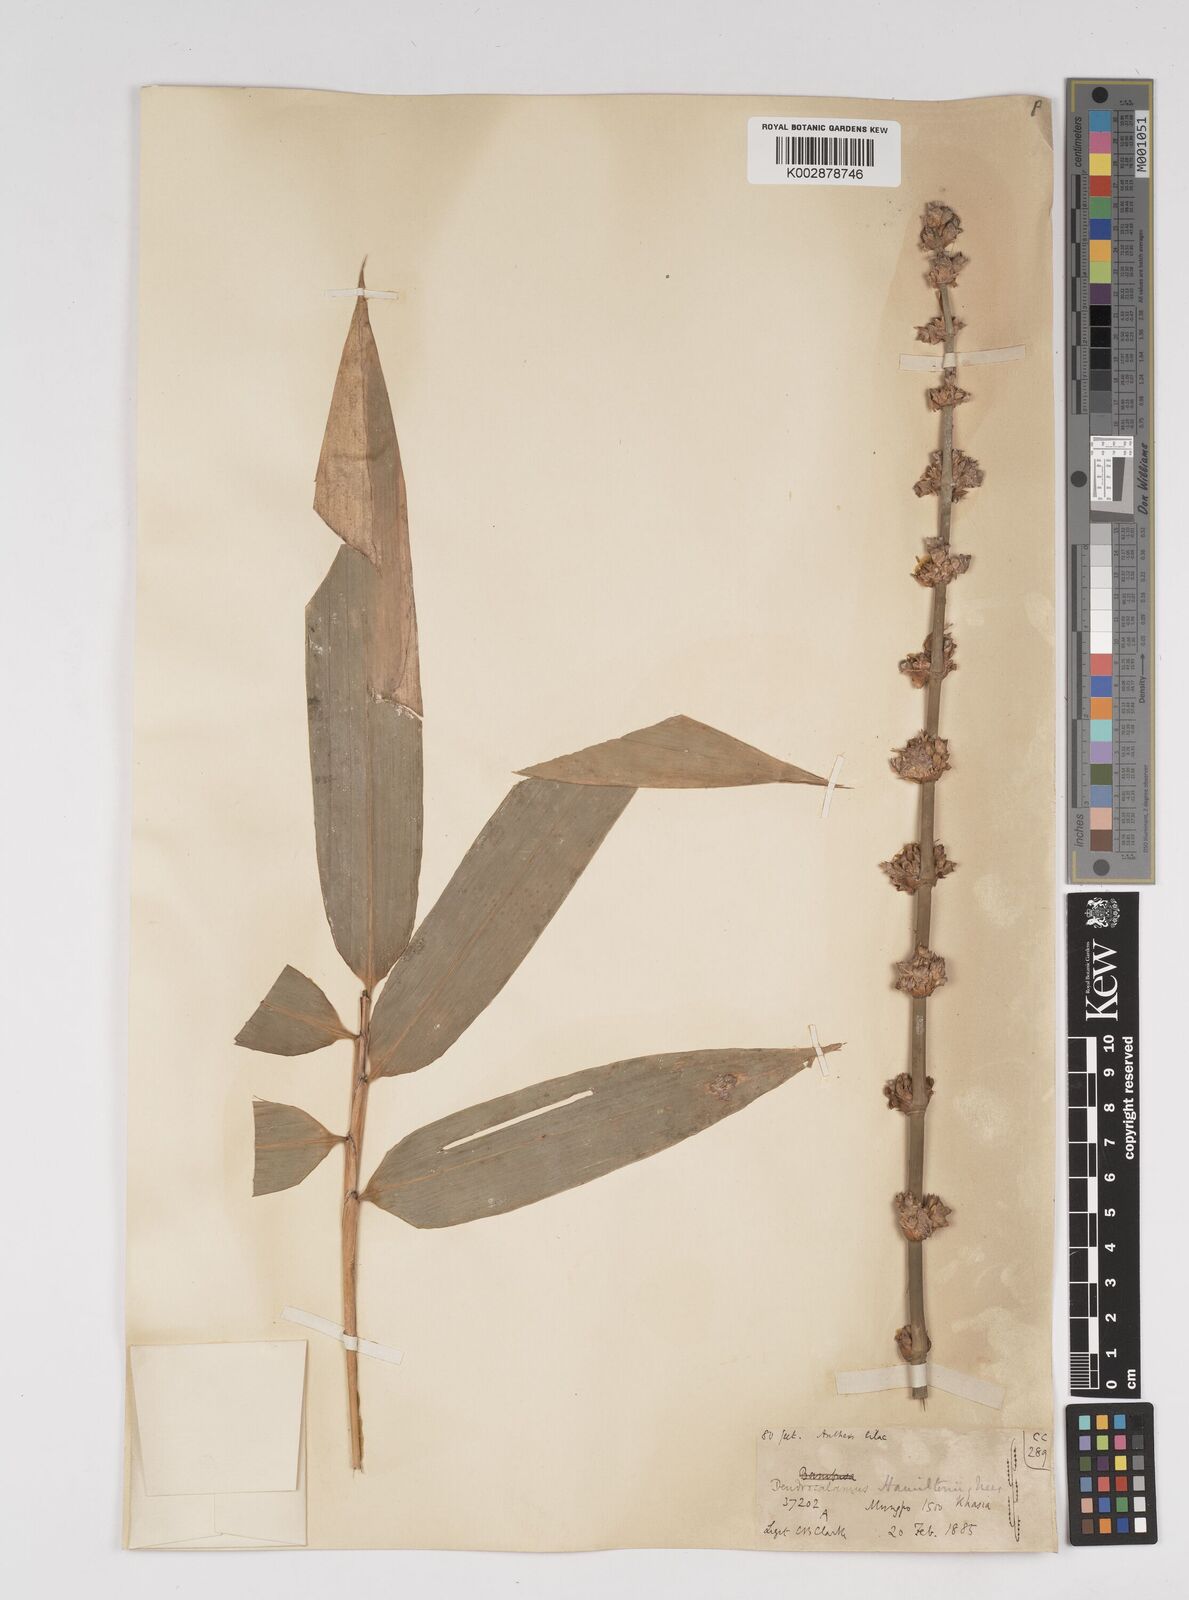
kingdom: Plantae
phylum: Tracheophyta
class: Liliopsida
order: Poales
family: Poaceae
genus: Dendrocalamus
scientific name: Dendrocalamus hamiltonii
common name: Tama bamboo
